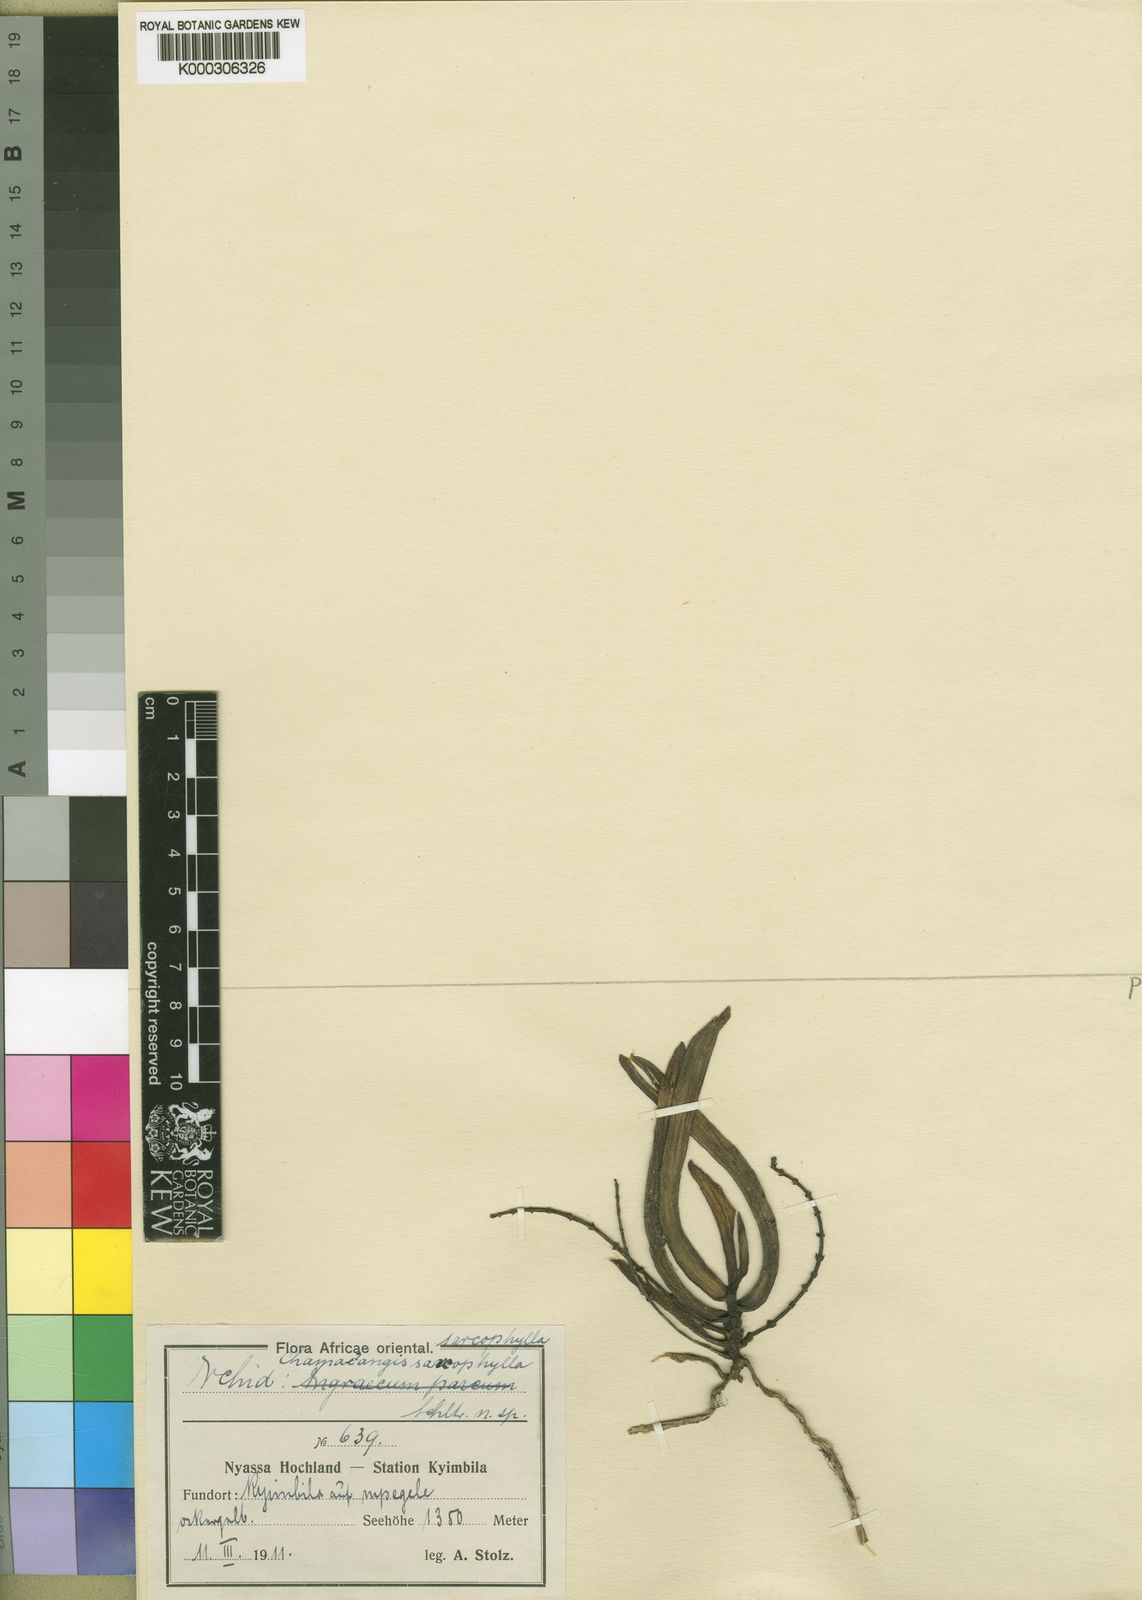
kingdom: Plantae
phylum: Tracheophyta
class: Liliopsida
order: Asparagales
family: Orchidaceae
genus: Diaphananthe
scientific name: Diaphananthe sarcophylla
